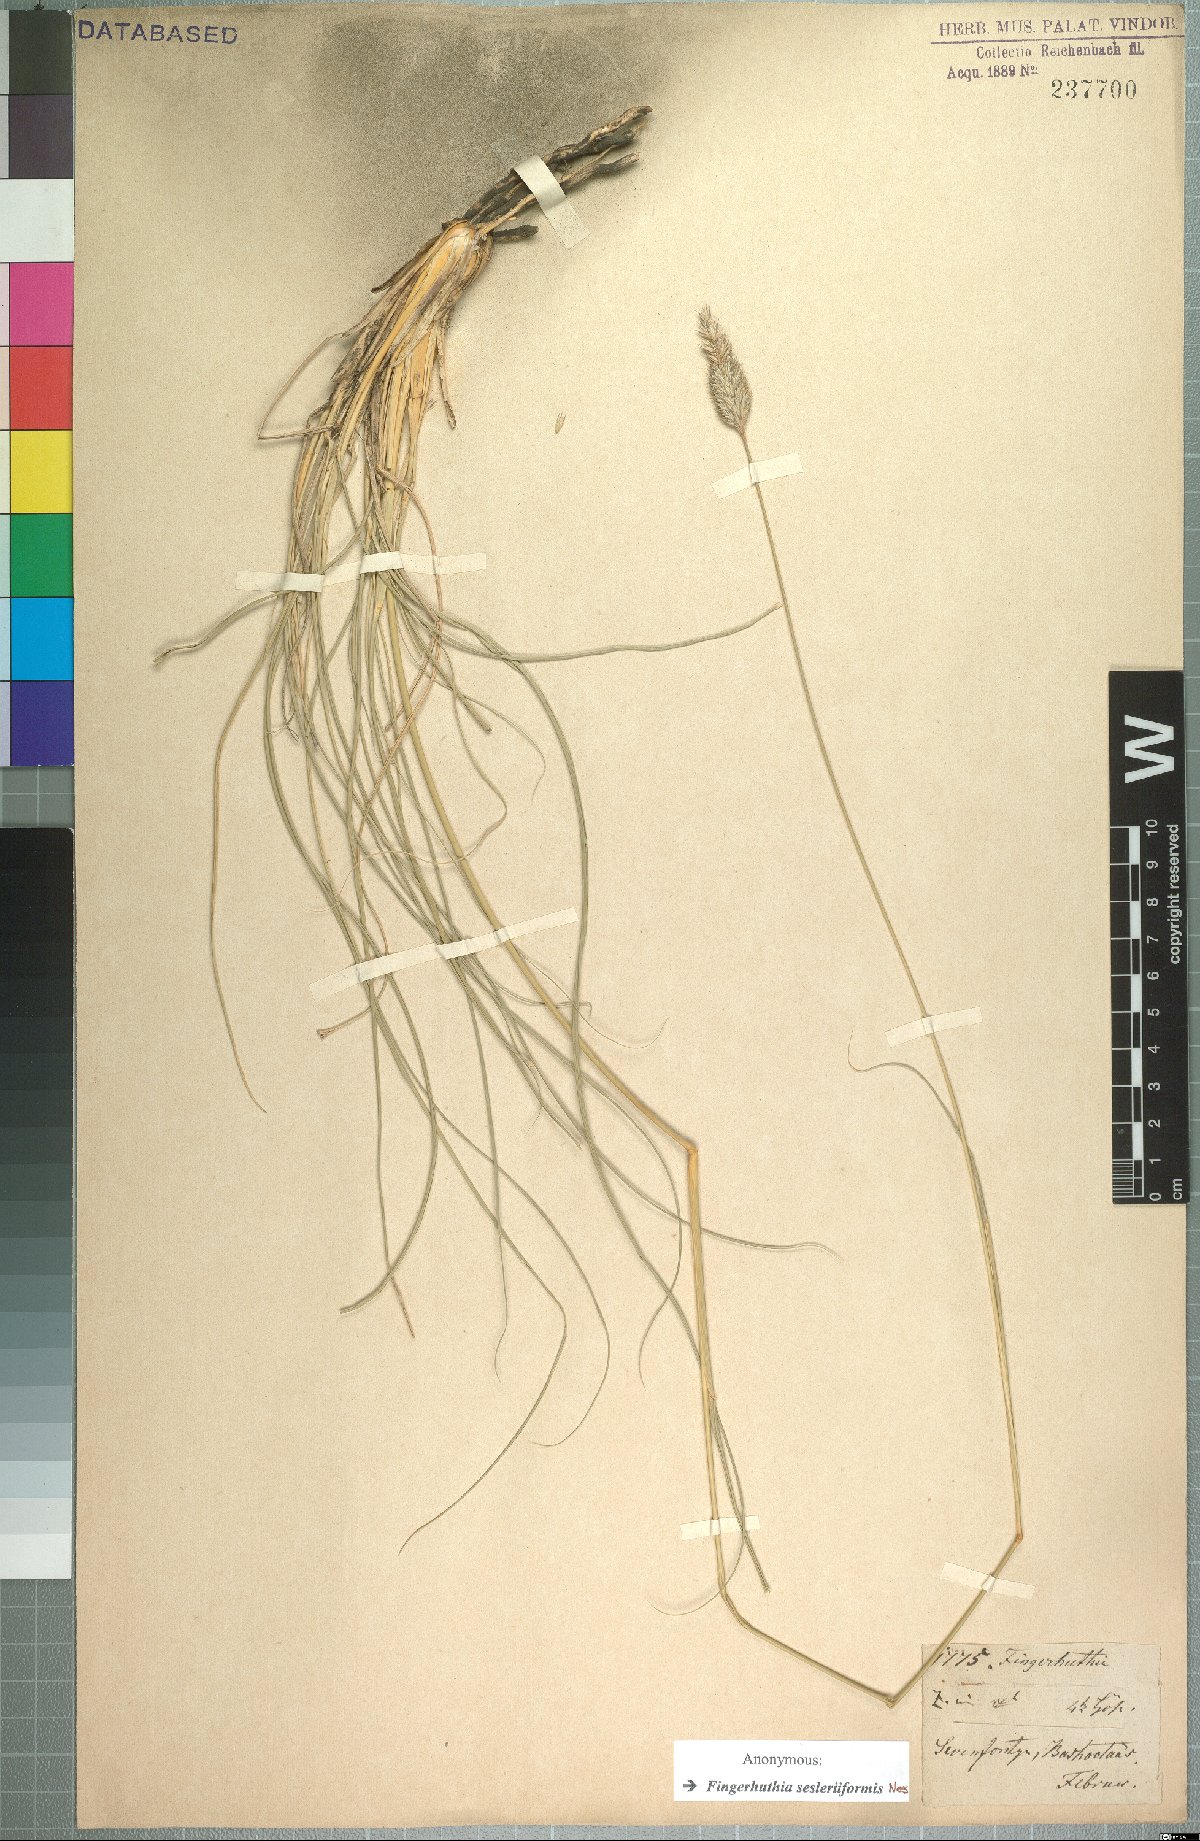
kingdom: Plantae
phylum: Tracheophyta
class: Liliopsida
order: Poales
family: Poaceae
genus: Fingerhuthia
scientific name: Fingerhuthia sesleriiformis
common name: Thimble grass
